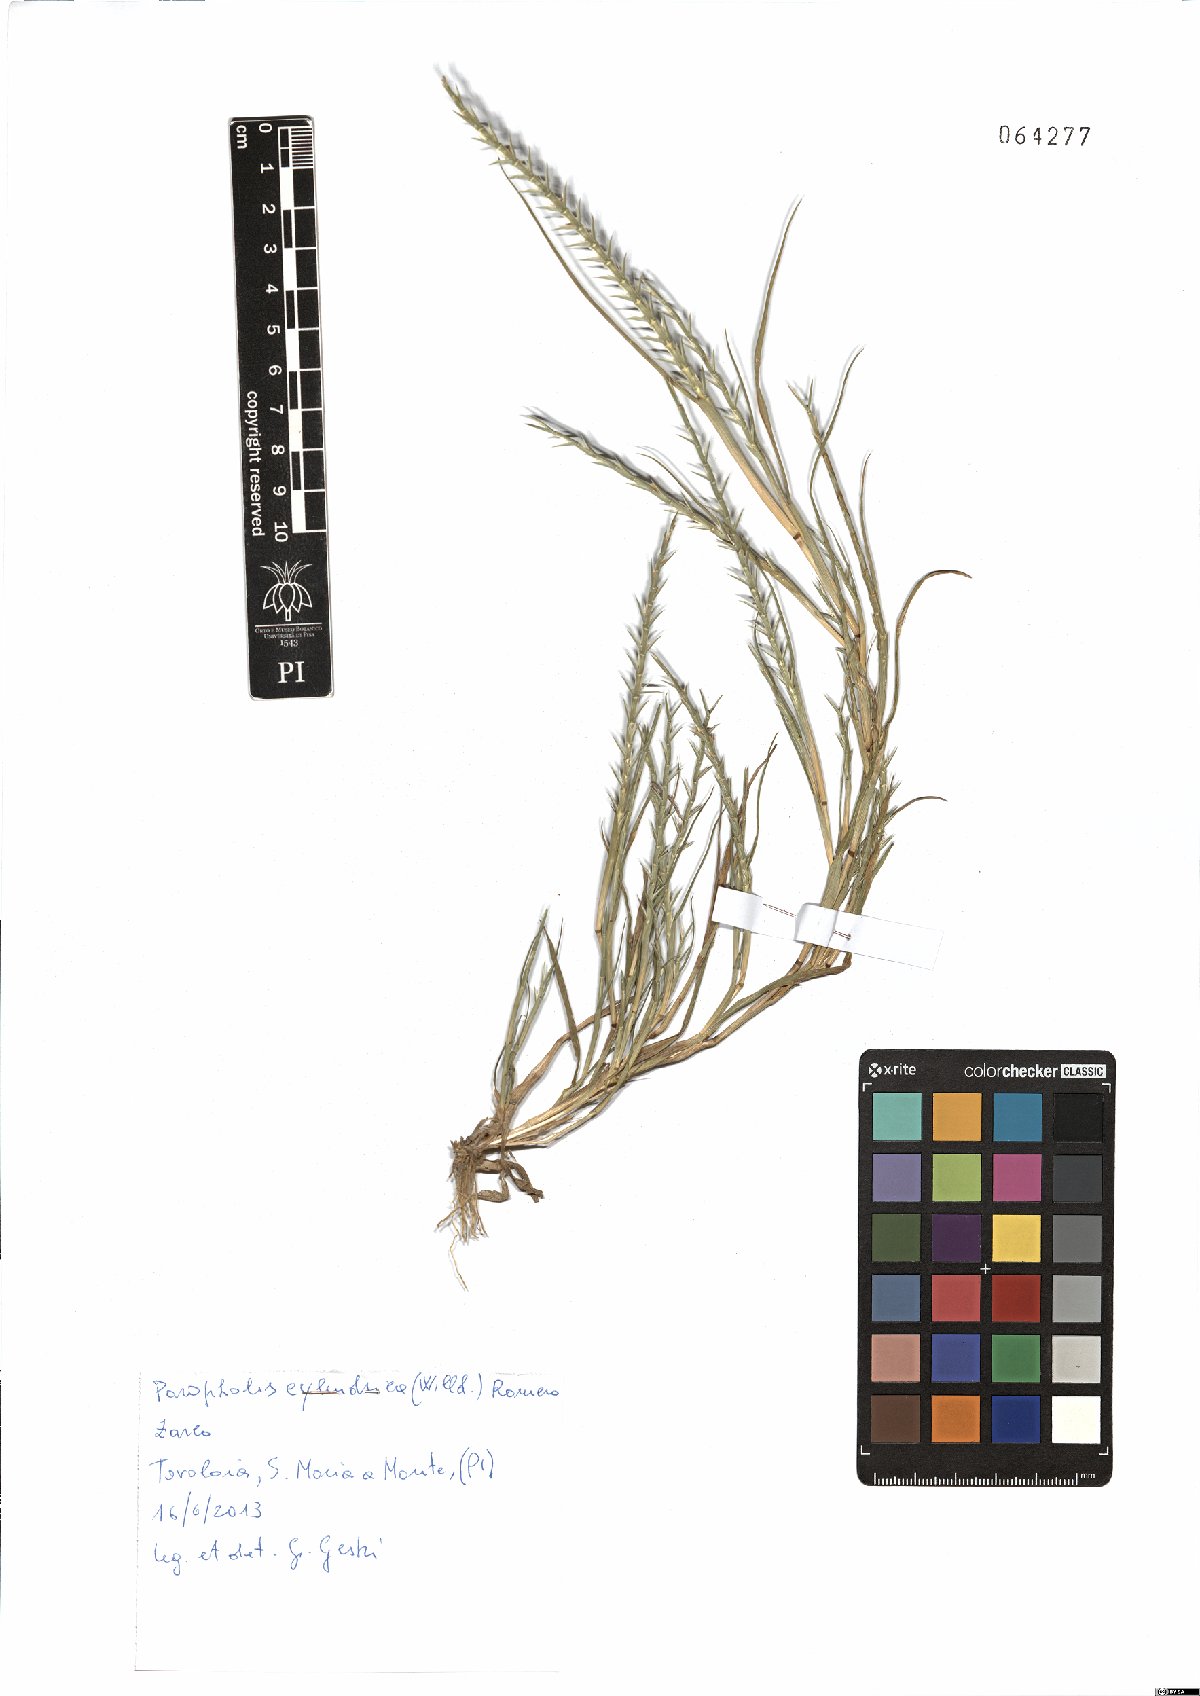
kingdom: Plantae
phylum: Tracheophyta
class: Liliopsida
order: Poales
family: Poaceae
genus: Parapholis
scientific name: Parapholis cylindrica
